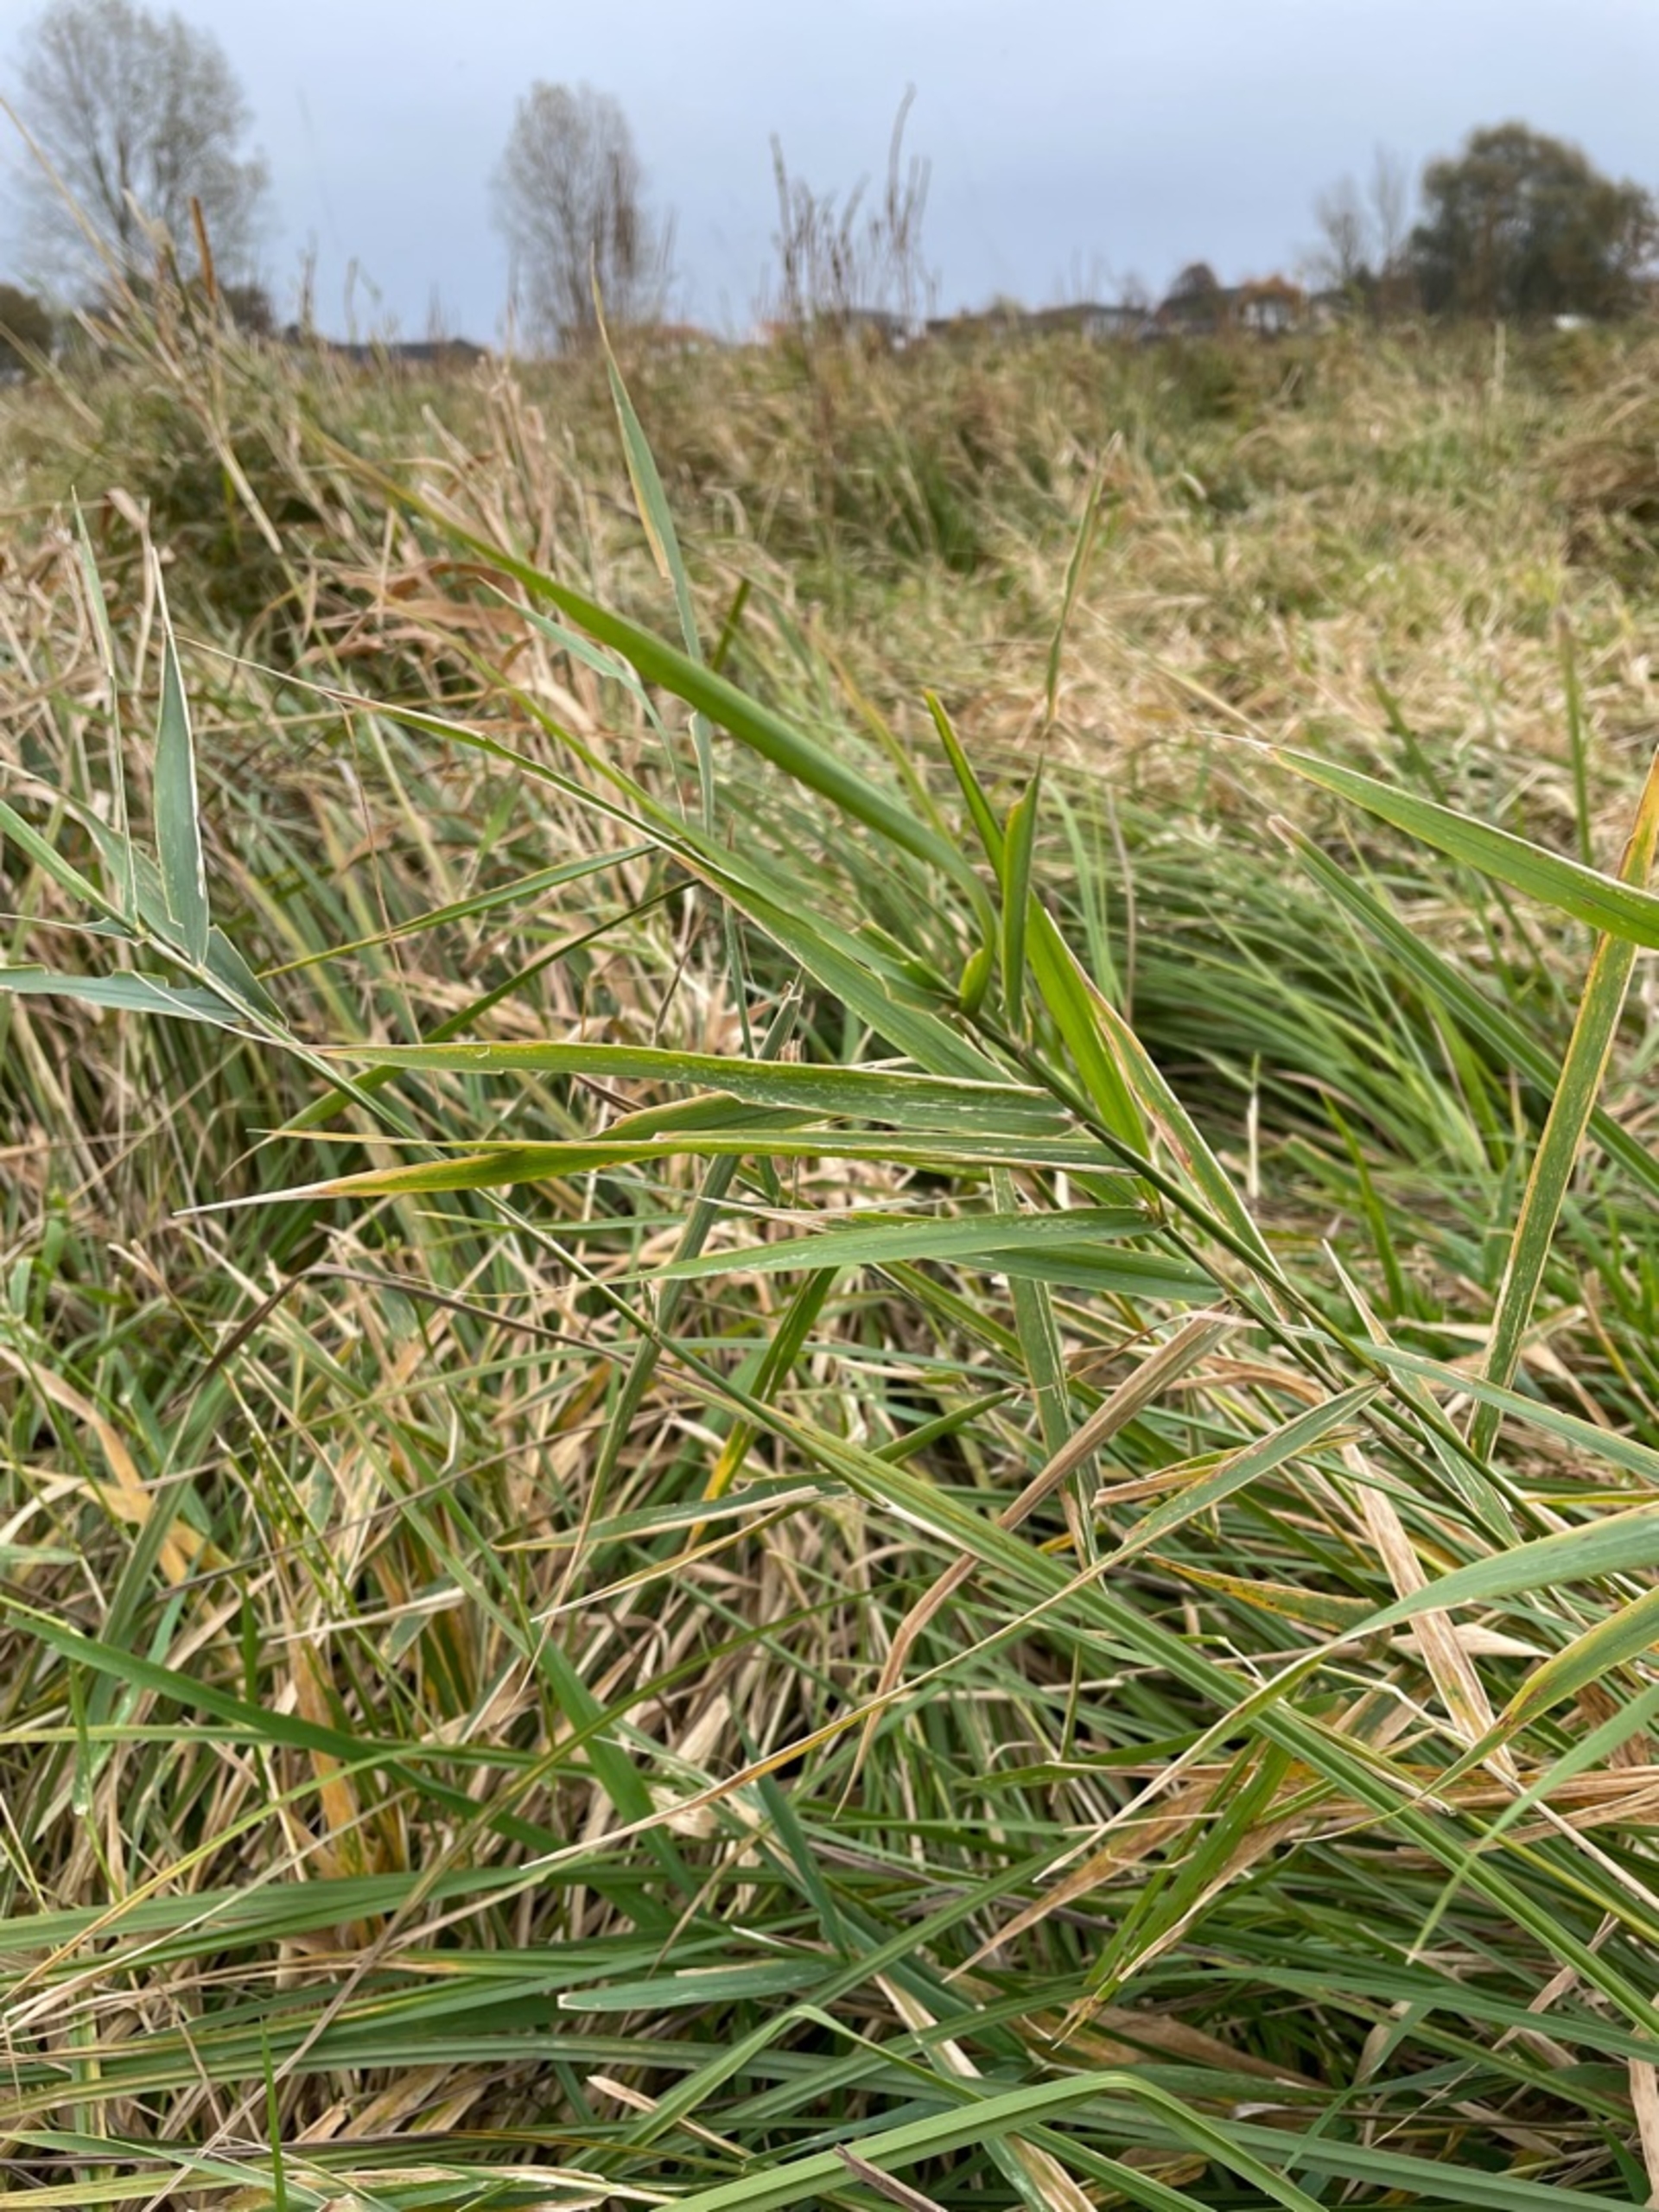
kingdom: Plantae
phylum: Tracheophyta
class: Liliopsida
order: Poales
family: Poaceae
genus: Phalaris
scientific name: Phalaris arundinacea
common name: Rørgræs
